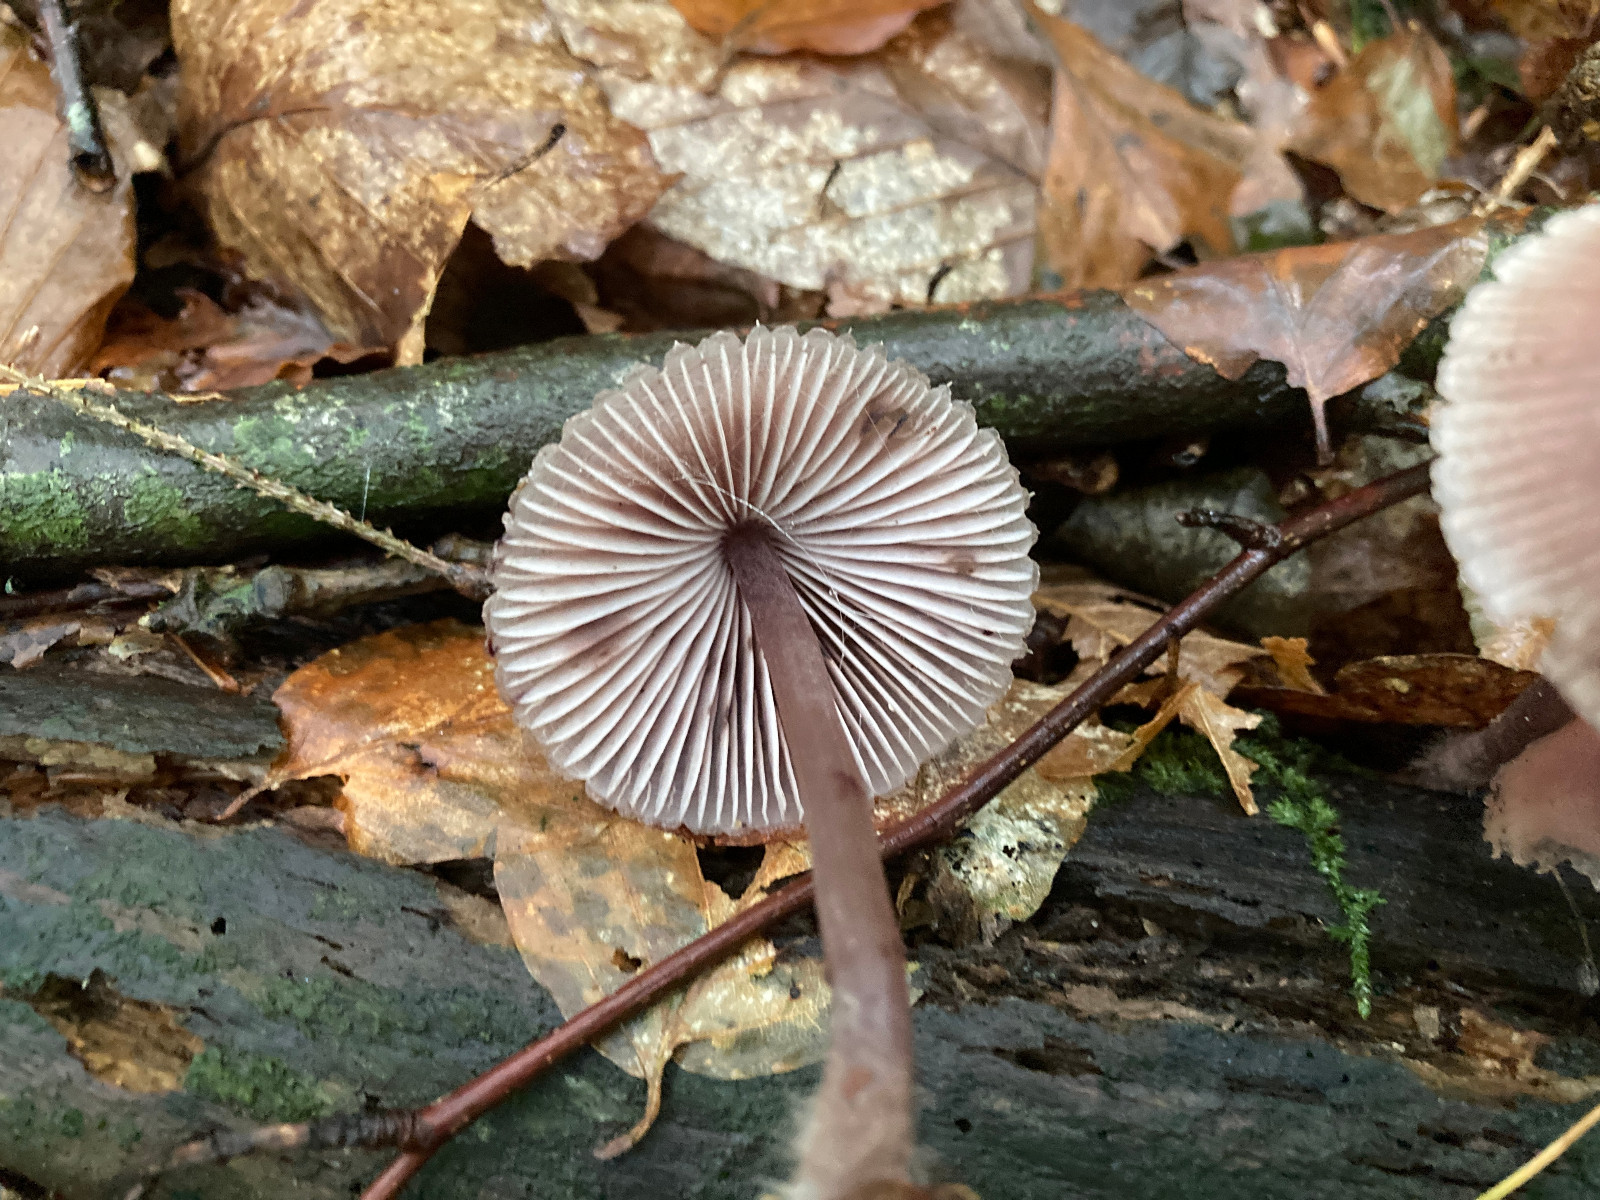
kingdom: Fungi
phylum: Basidiomycota
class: Agaricomycetes
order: Agaricales
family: Mycenaceae
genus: Mycena
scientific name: Mycena haematopus
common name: blødende huesvamp
